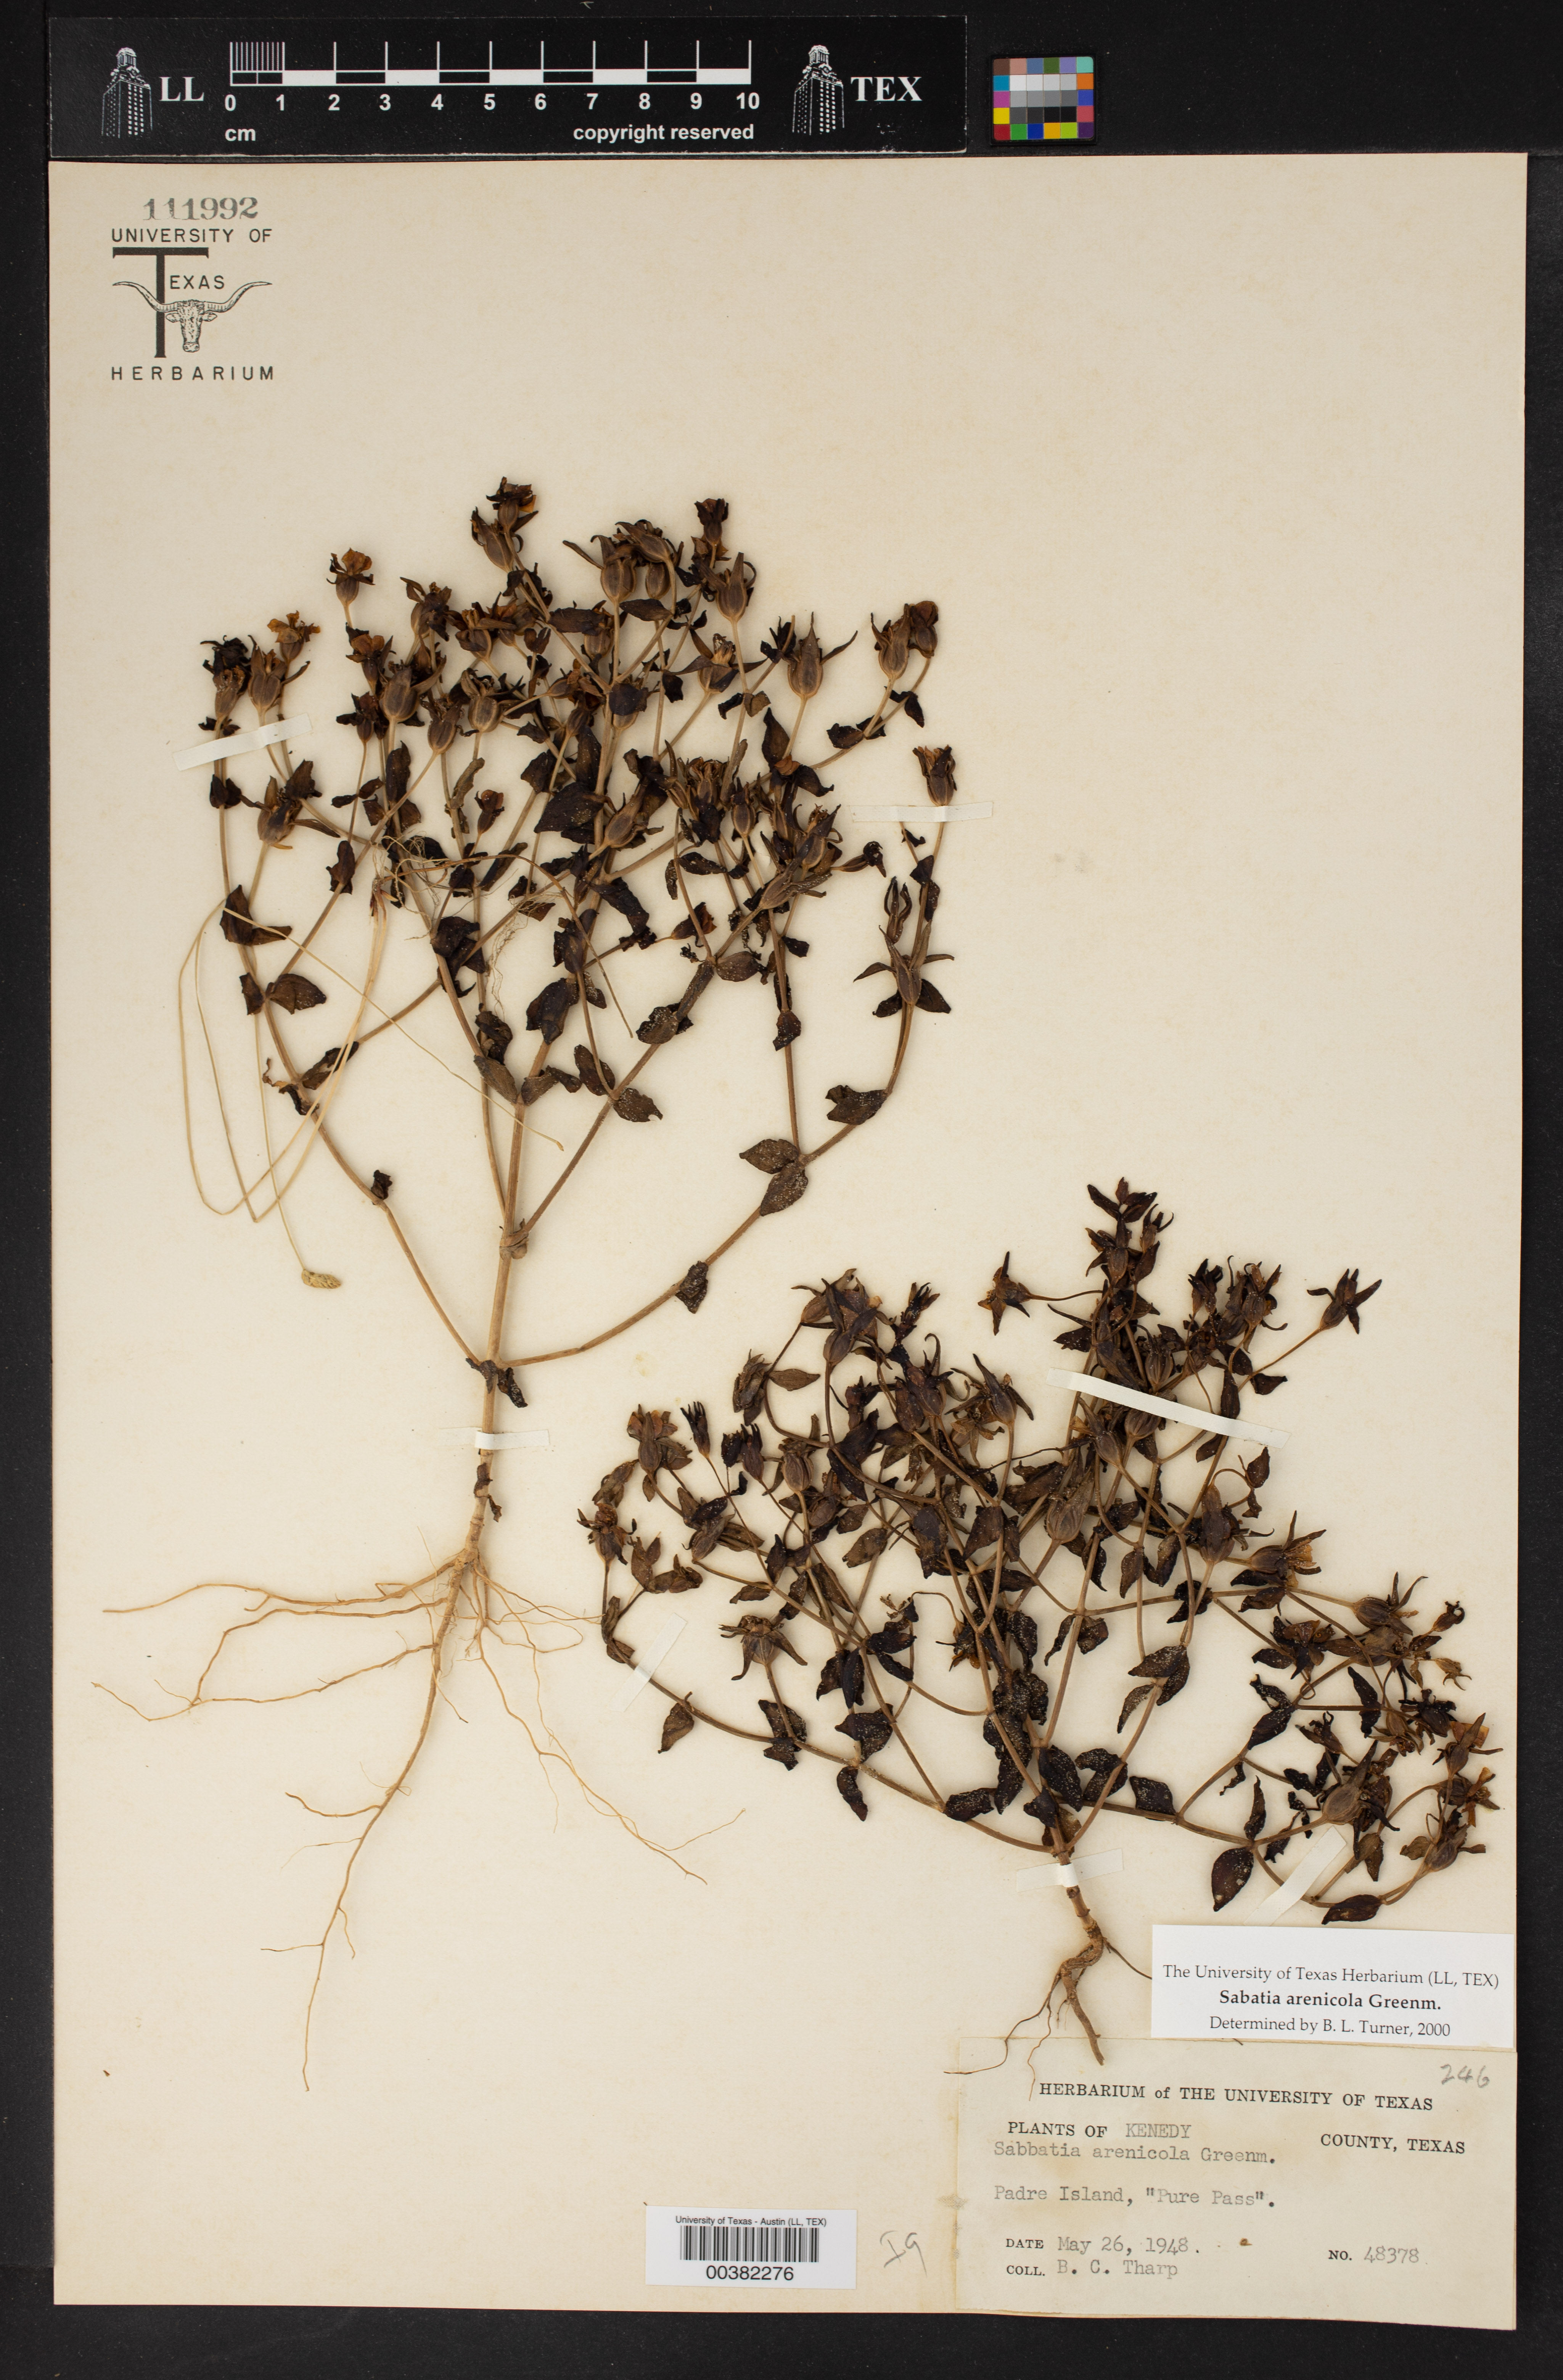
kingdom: Plantae
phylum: Tracheophyta
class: Magnoliopsida
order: Gentianales
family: Gentianaceae
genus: Sabatia
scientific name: Sabatia arenicola
